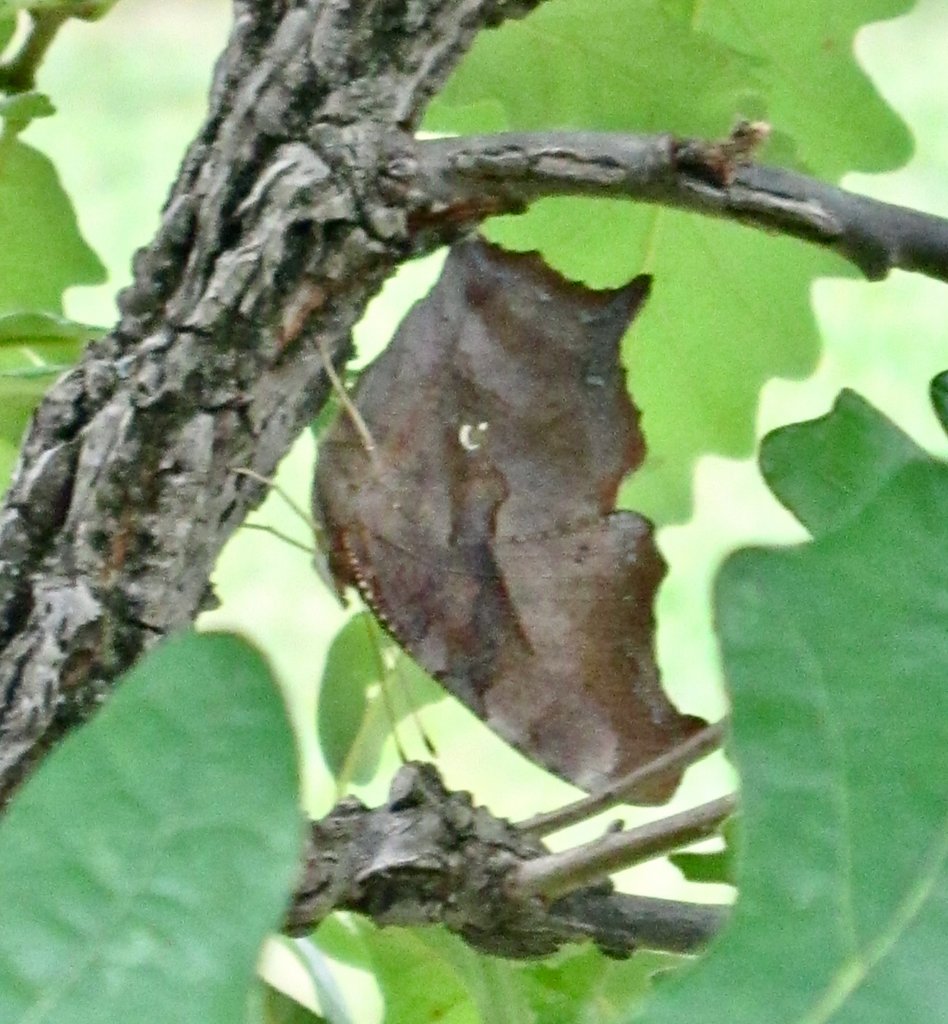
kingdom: Animalia
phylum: Arthropoda
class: Insecta
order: Lepidoptera
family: Nymphalidae
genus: Polygonia
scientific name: Polygonia interrogationis
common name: Question Mark
